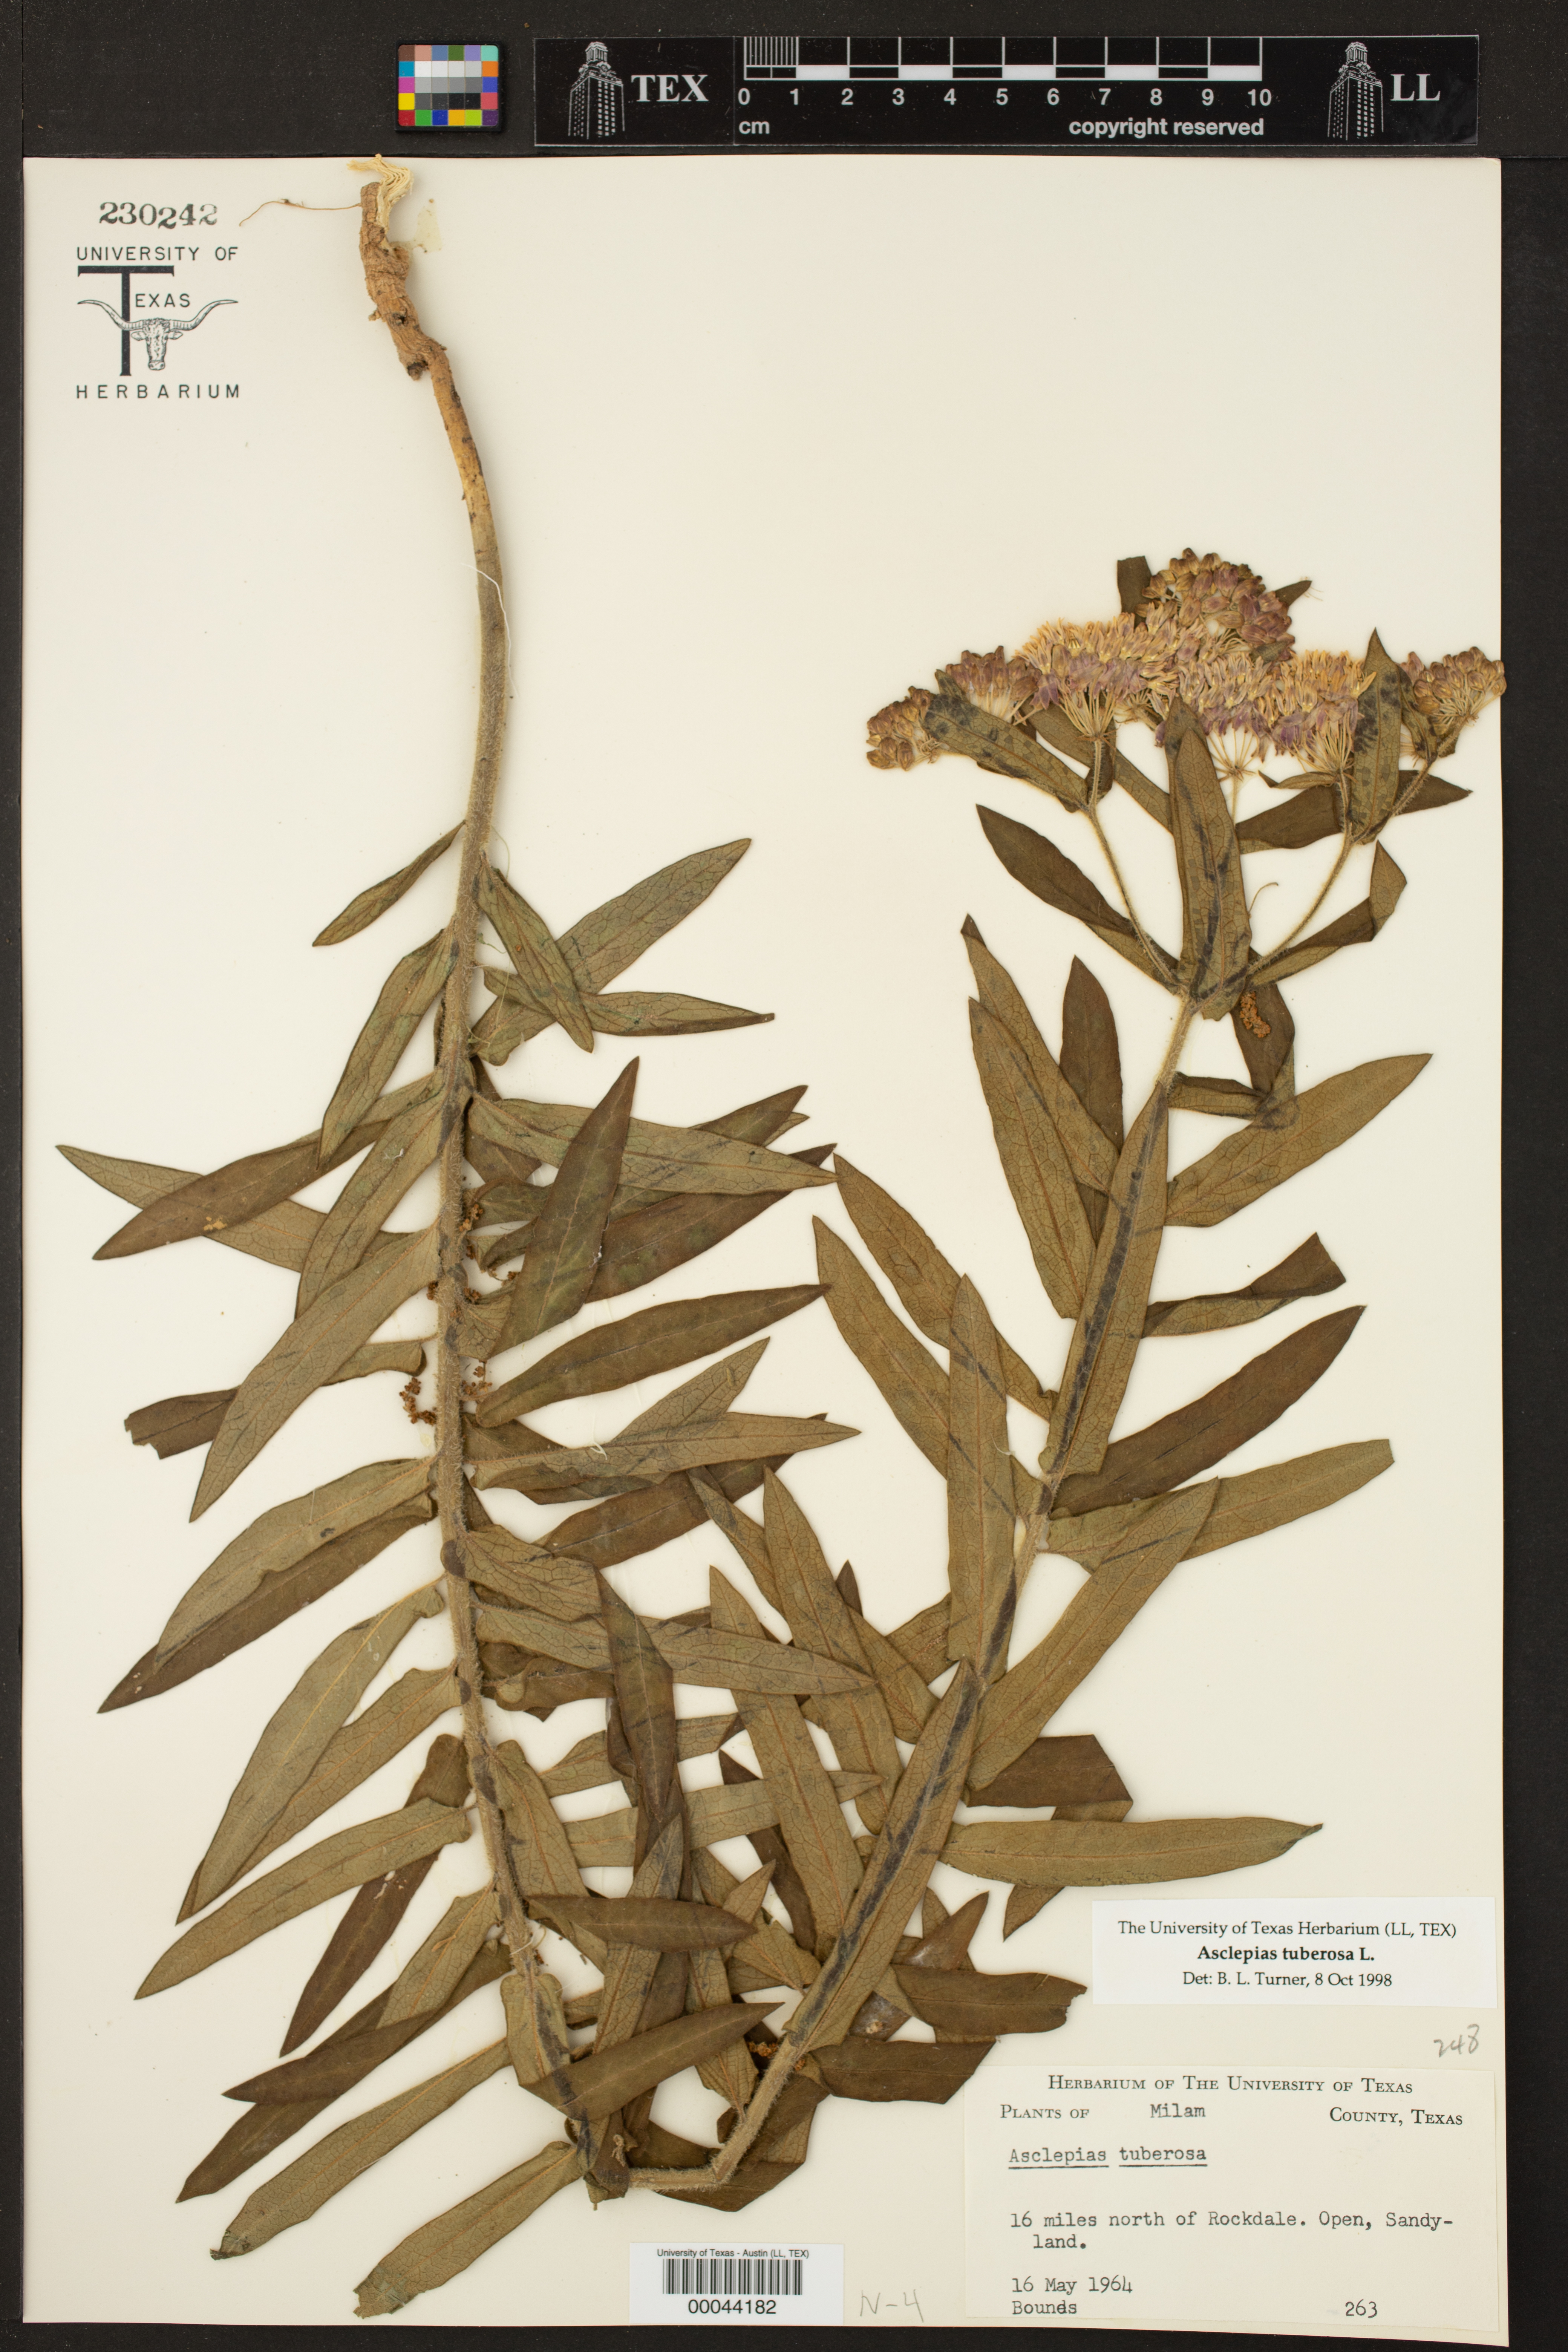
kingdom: Plantae
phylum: Tracheophyta
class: Magnoliopsida
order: Gentianales
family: Apocynaceae
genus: Asclepias
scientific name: Asclepias tuberosa
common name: Butterfly milkweed
